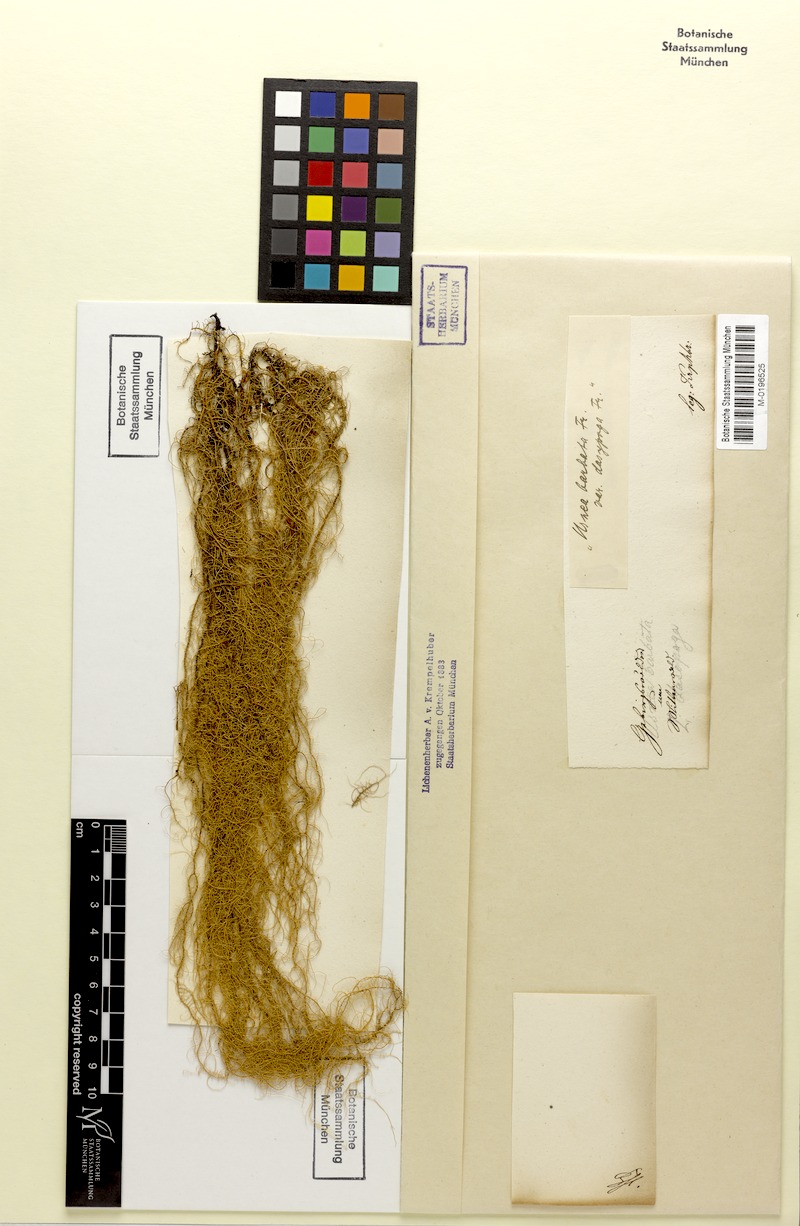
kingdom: Fungi
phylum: Ascomycota
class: Lecanoromycetes
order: Lecanorales
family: Parmeliaceae
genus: Usnea
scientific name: Usnea dasopoga
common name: Fishbone beard lichen
